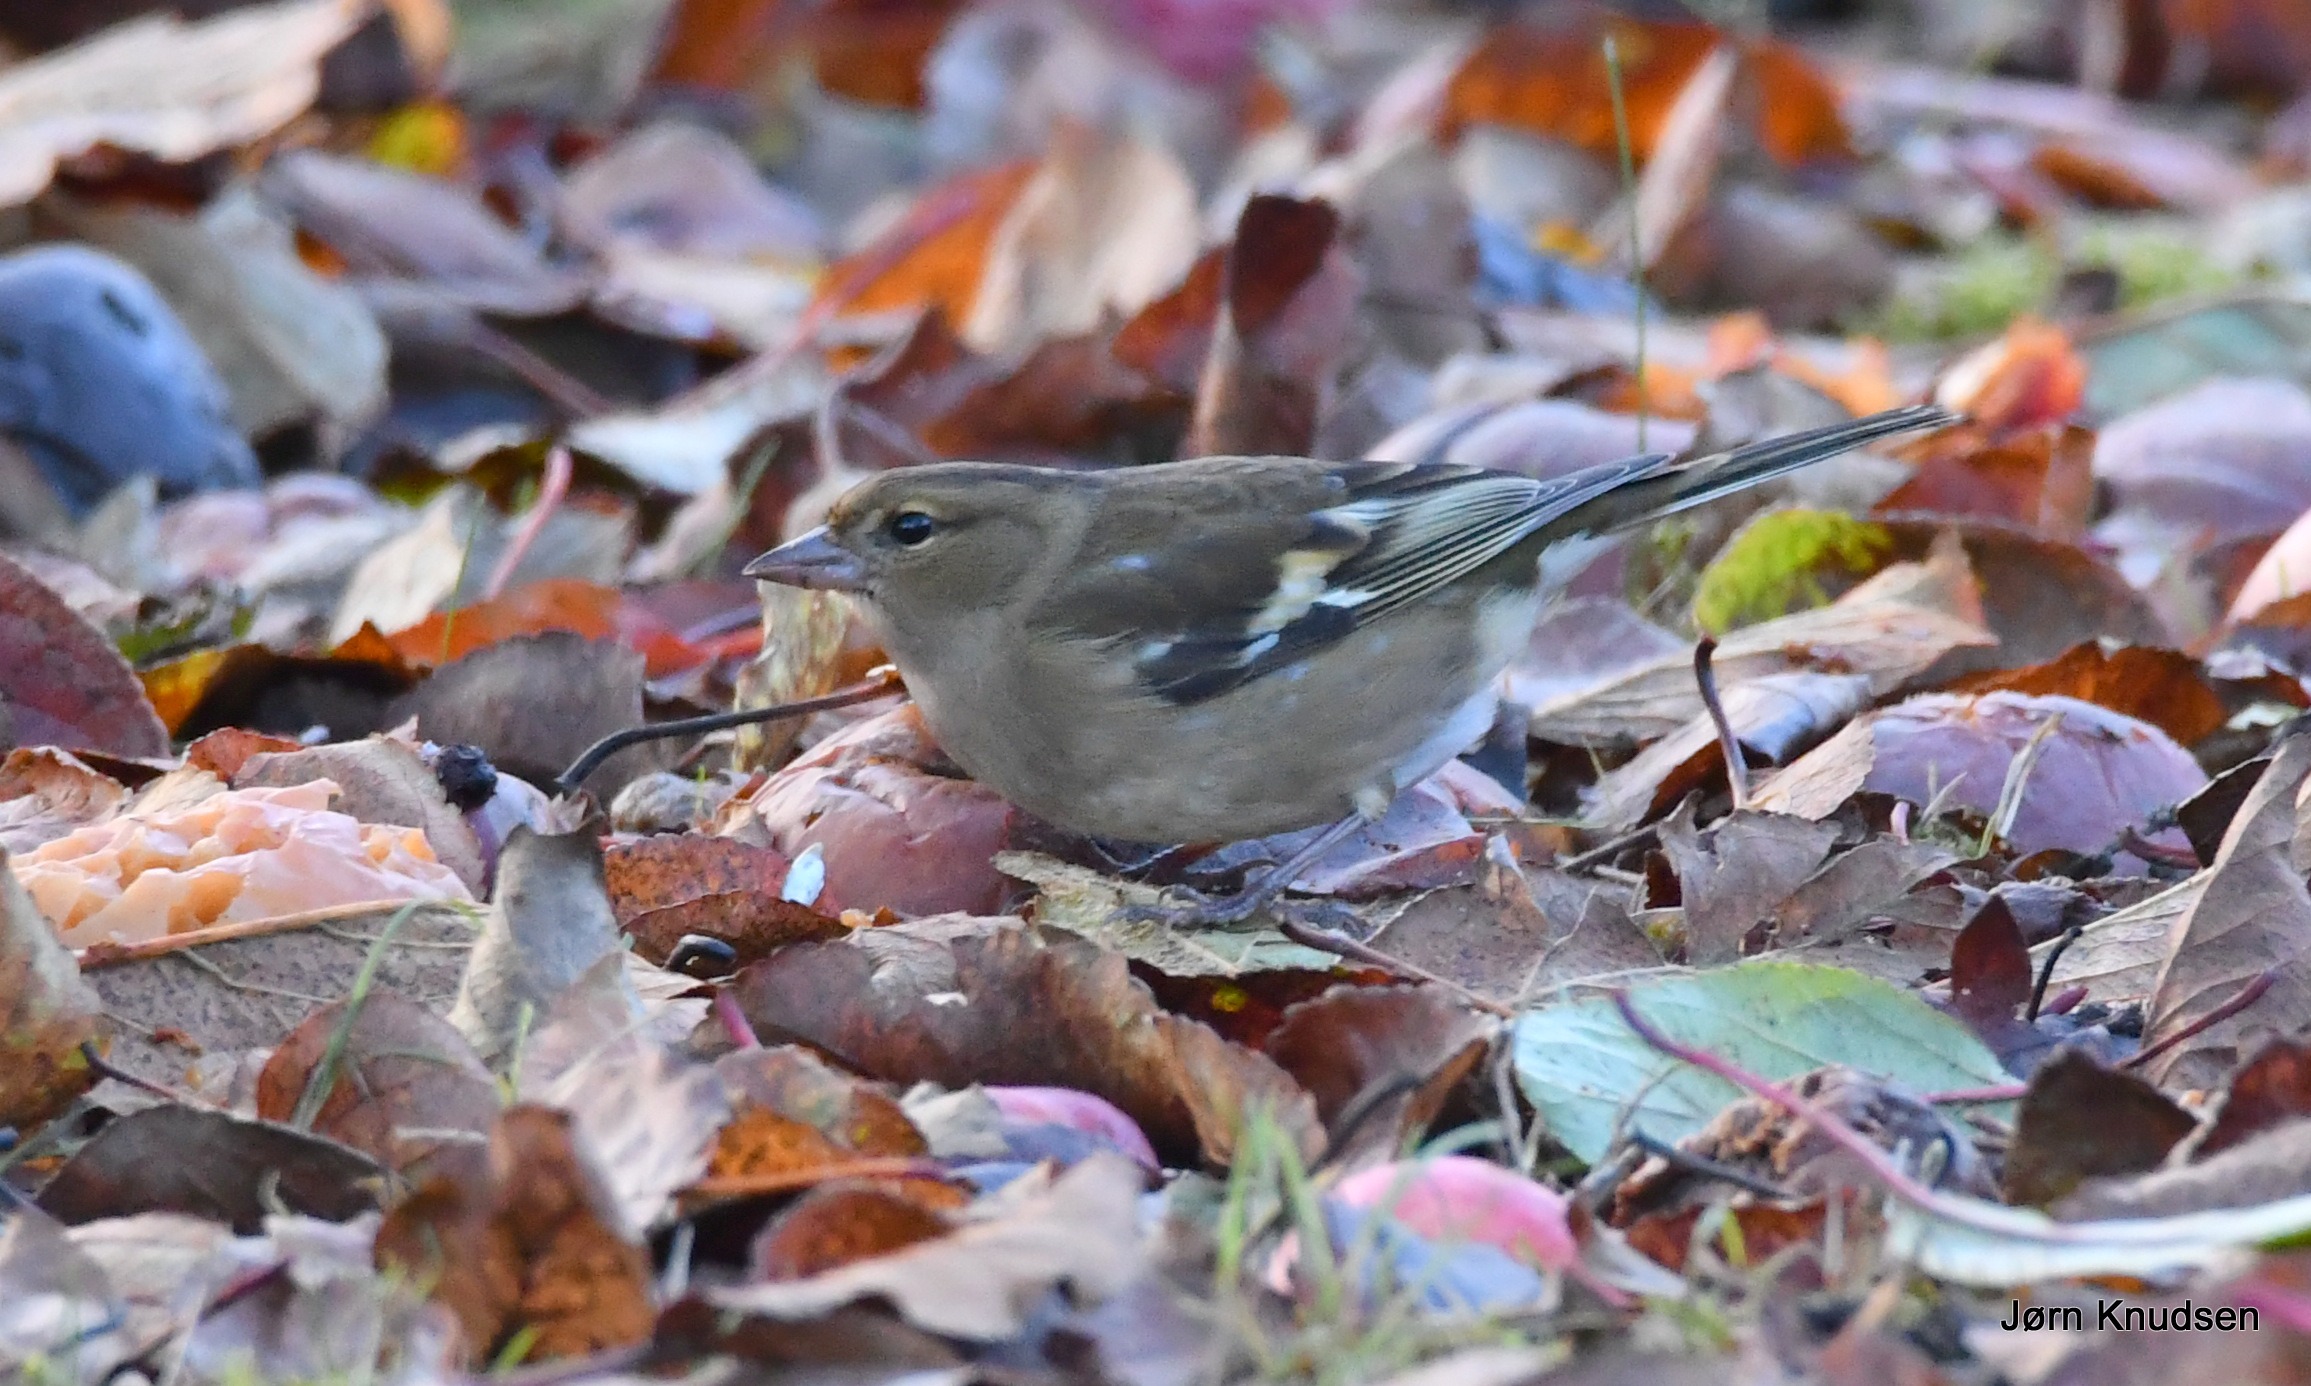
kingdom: Animalia
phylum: Chordata
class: Aves
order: Passeriformes
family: Fringillidae
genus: Fringilla
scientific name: Fringilla coelebs
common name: Bogfinke
